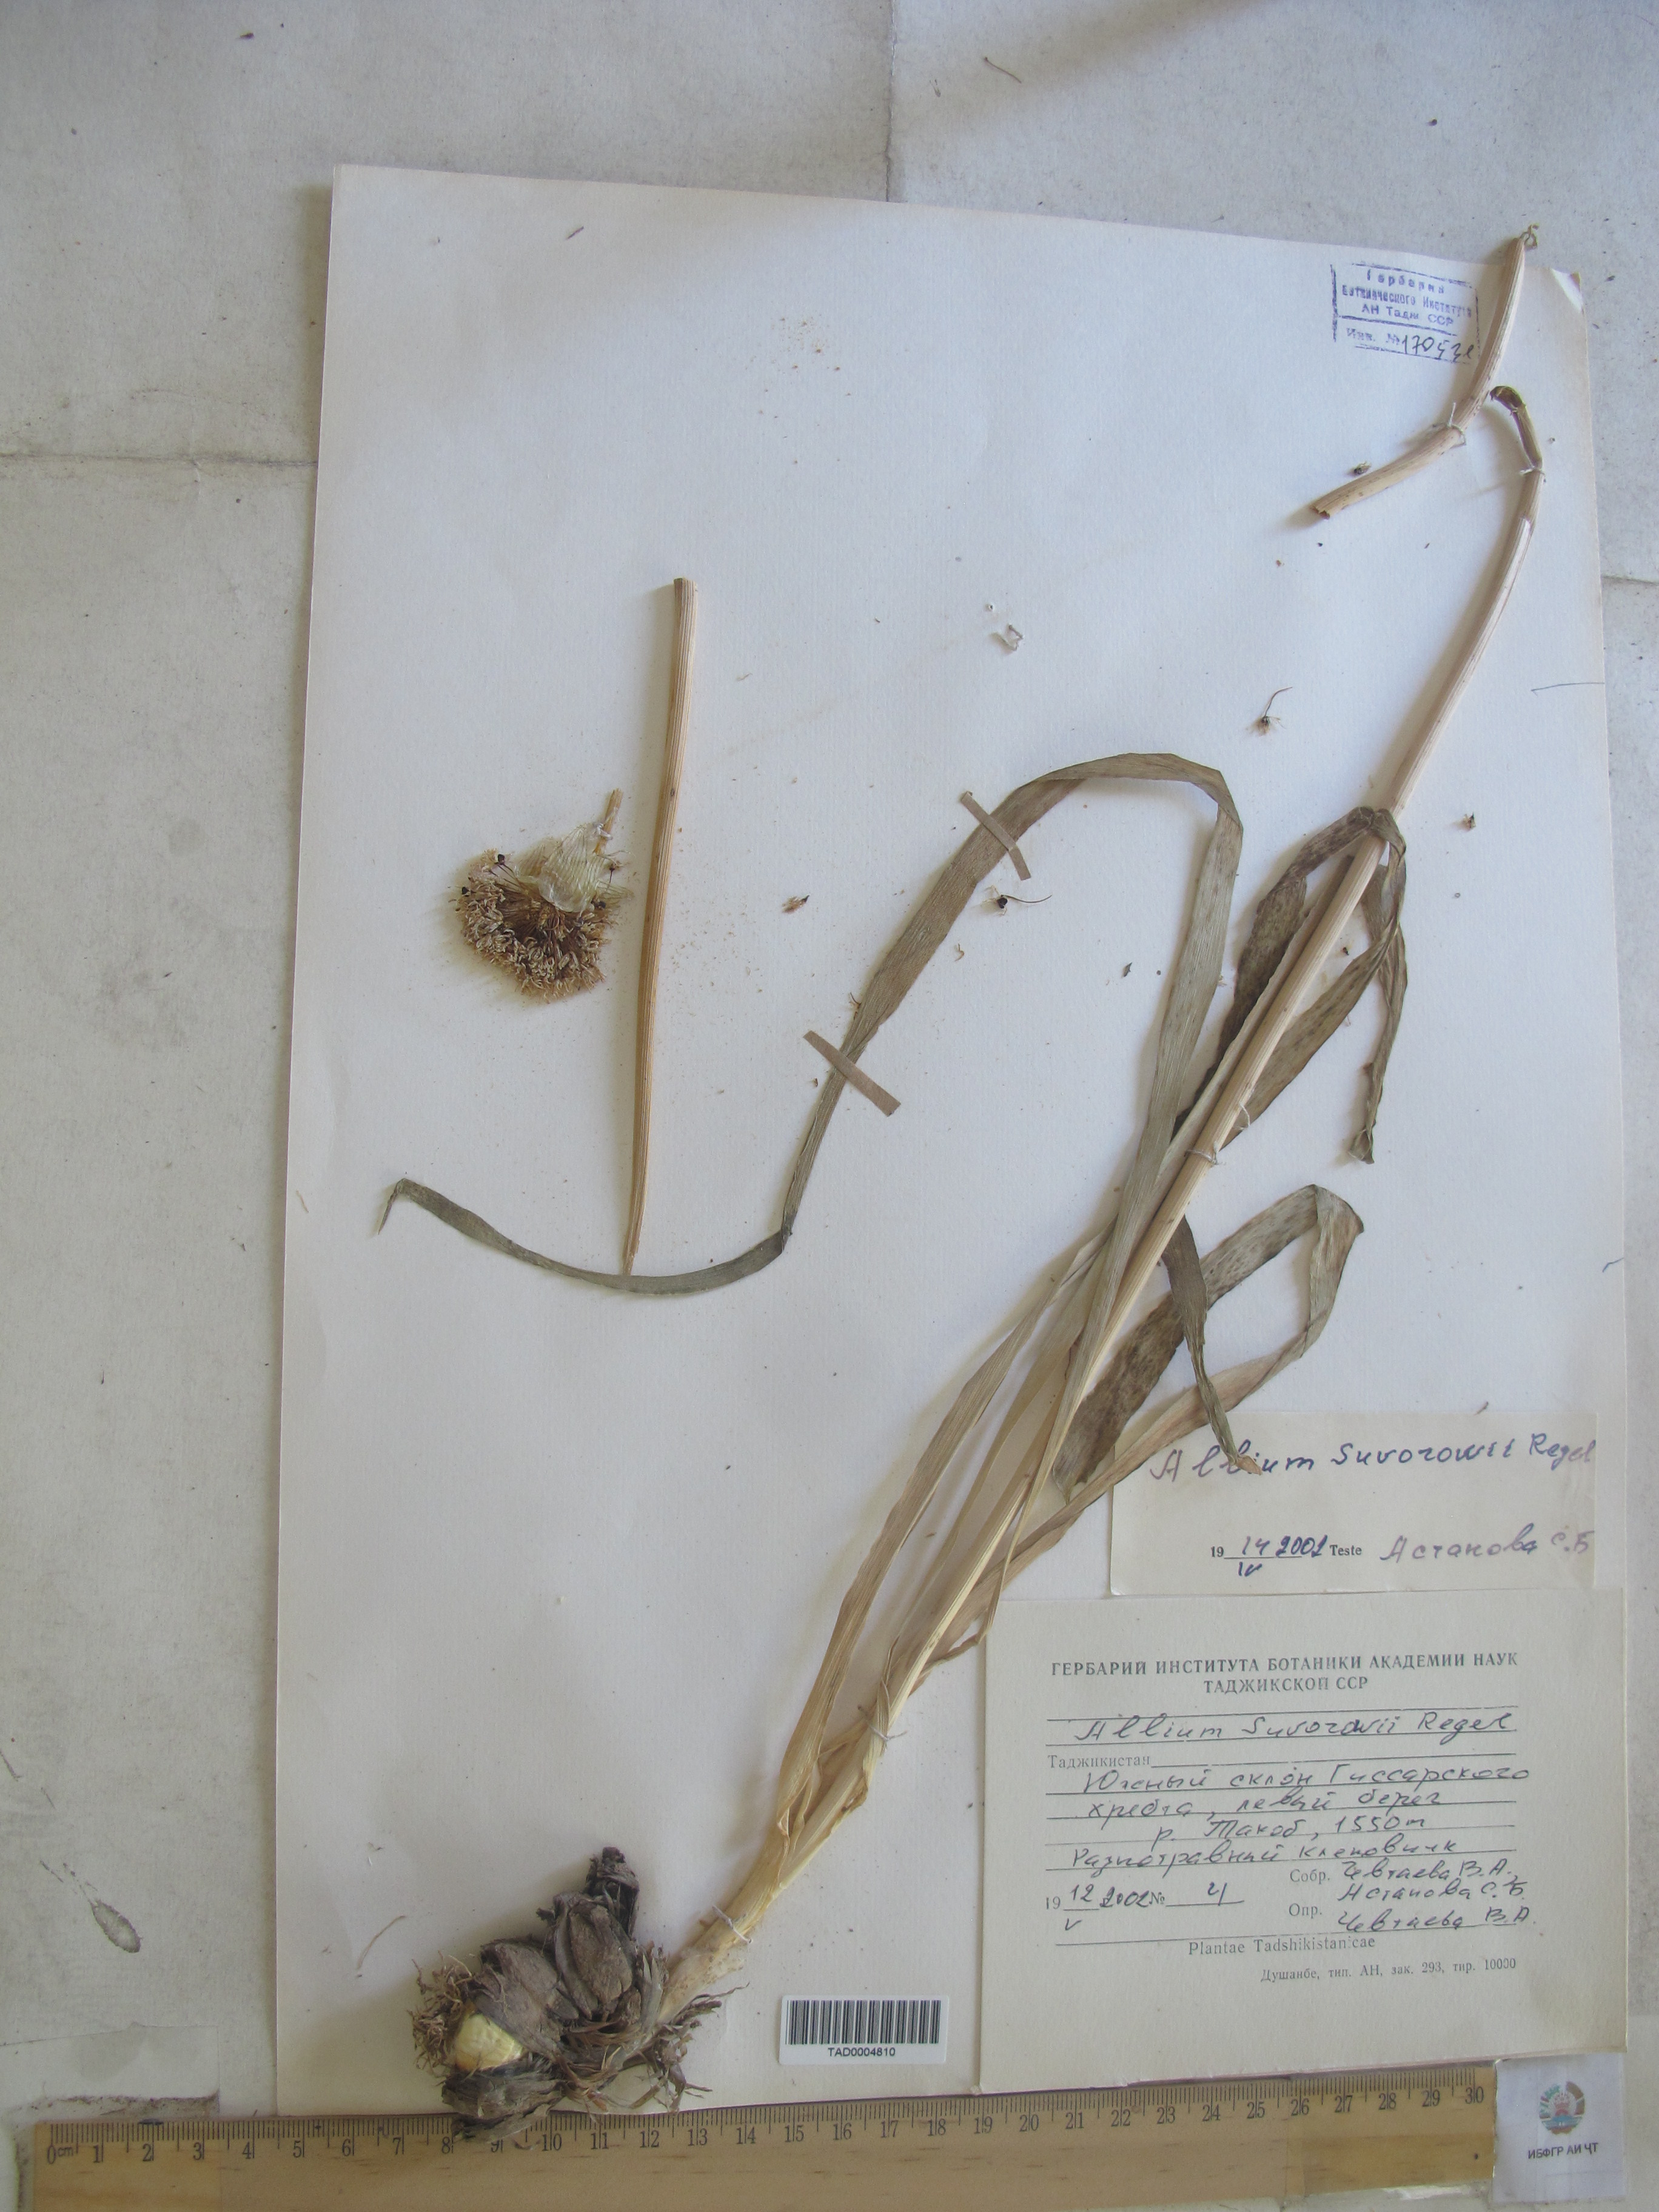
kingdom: Plantae
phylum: Tracheophyta
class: Liliopsida
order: Asparagales
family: Amaryllidaceae
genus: Allium
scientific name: Allium suworowii
